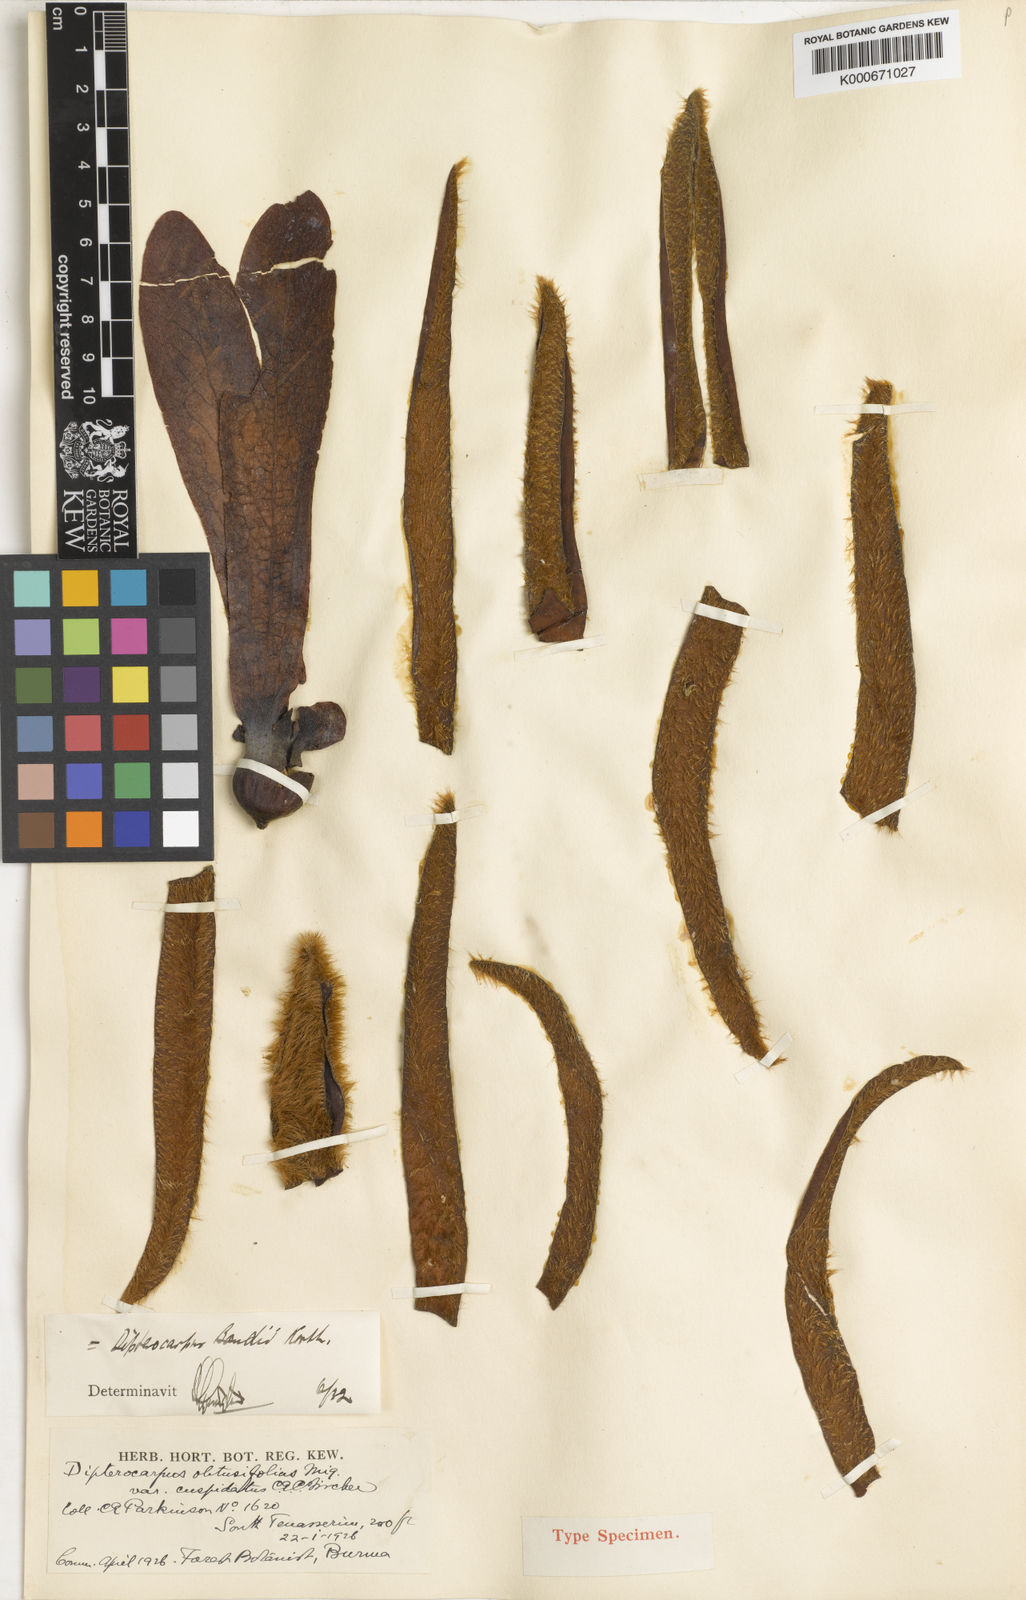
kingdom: Plantae
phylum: Tracheophyta
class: Magnoliopsida
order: Malvales
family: Dipterocarpaceae
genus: Dipterocarpus
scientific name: Dipterocarpus baudii
